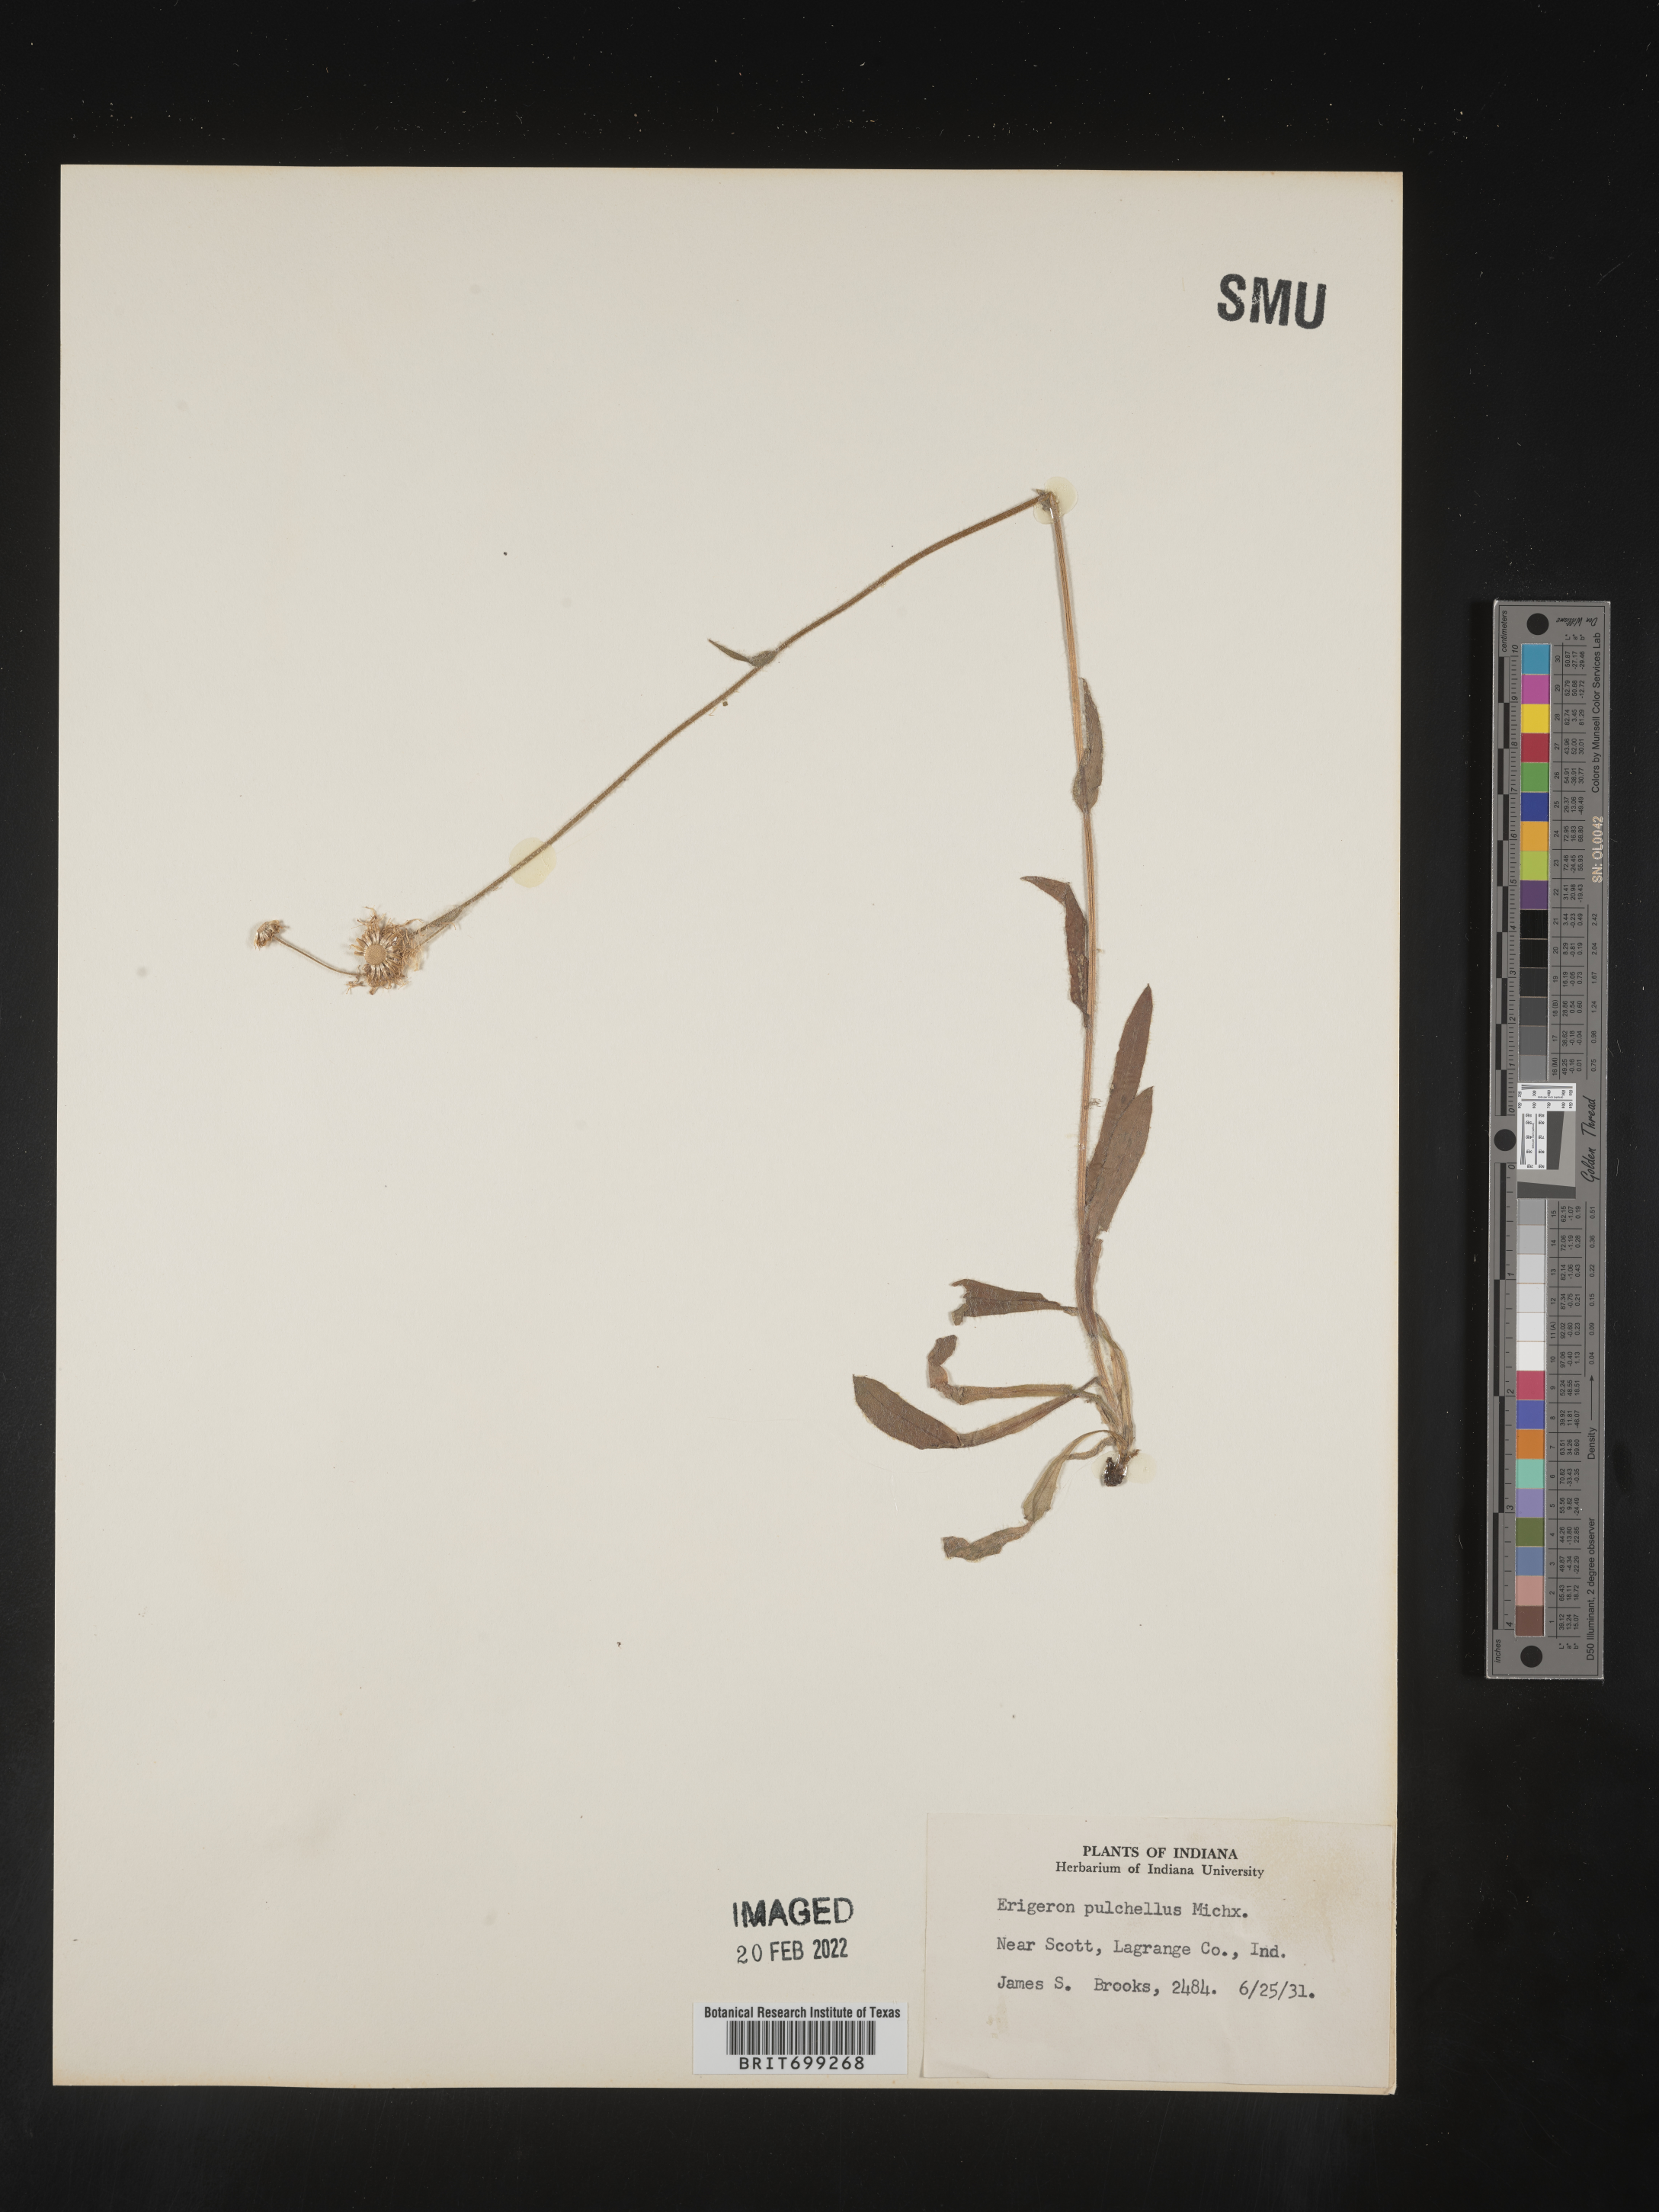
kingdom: Plantae
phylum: Tracheophyta
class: Magnoliopsida
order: Asterales
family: Asteraceae
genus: Erigeron
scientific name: Erigeron pulchellus
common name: Hairy fleabane
